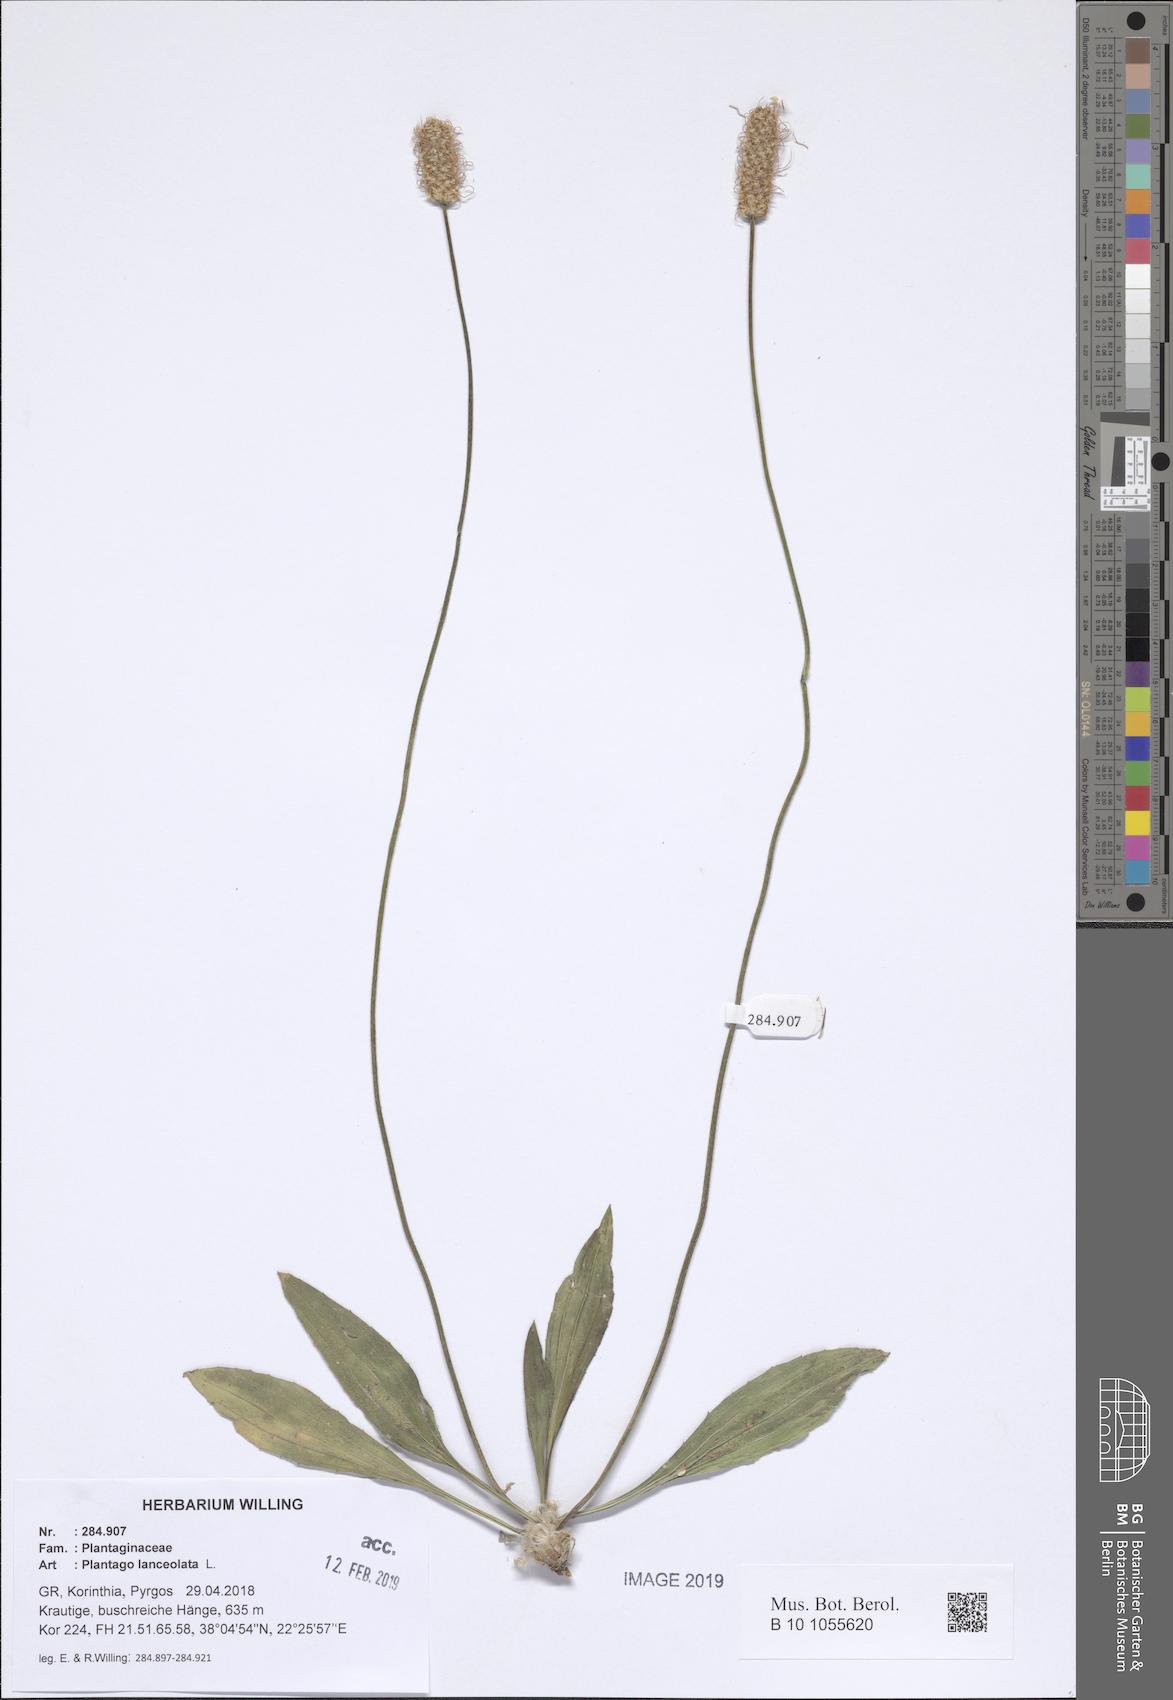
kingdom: Plantae
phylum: Tracheophyta
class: Magnoliopsida
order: Lamiales
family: Plantaginaceae
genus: Plantago
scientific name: Plantago lanceolata
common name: Ribwort plantain
